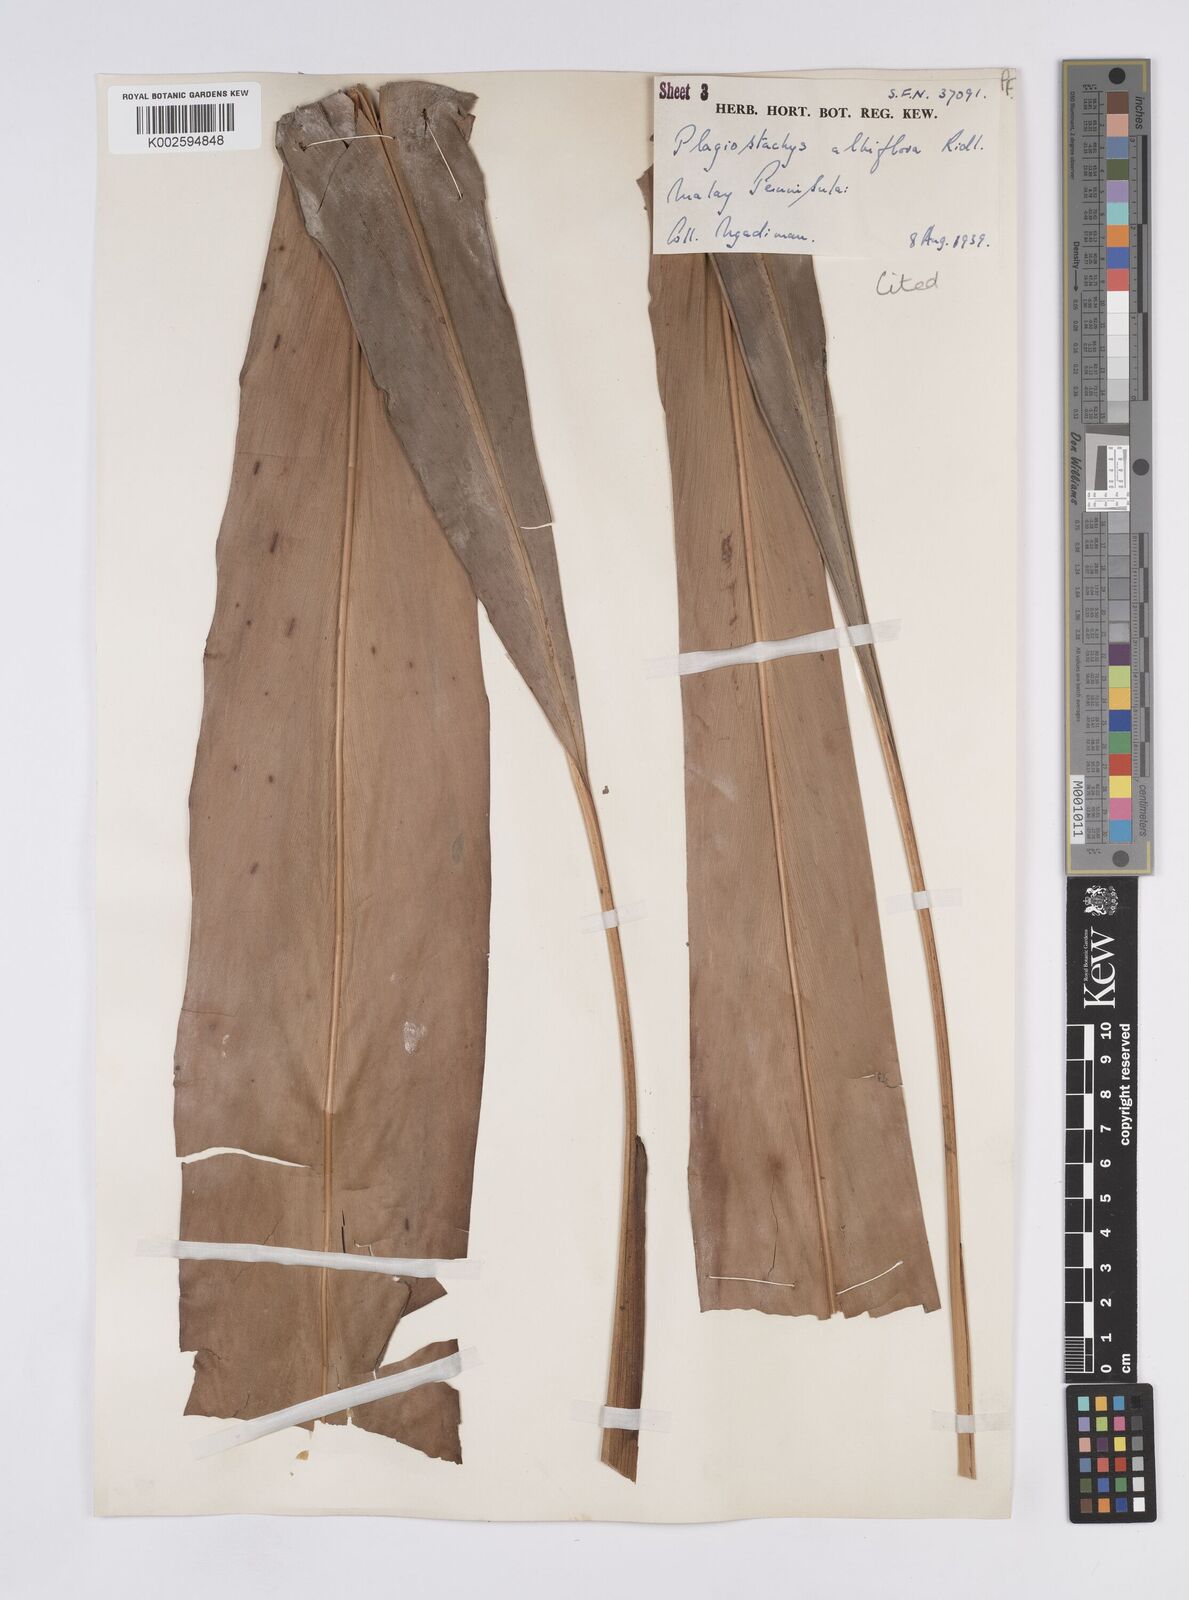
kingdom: Plantae
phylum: Tracheophyta
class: Liliopsida
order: Zingiberales
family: Zingiberaceae
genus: Plagiostachys
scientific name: Plagiostachys albiflora
